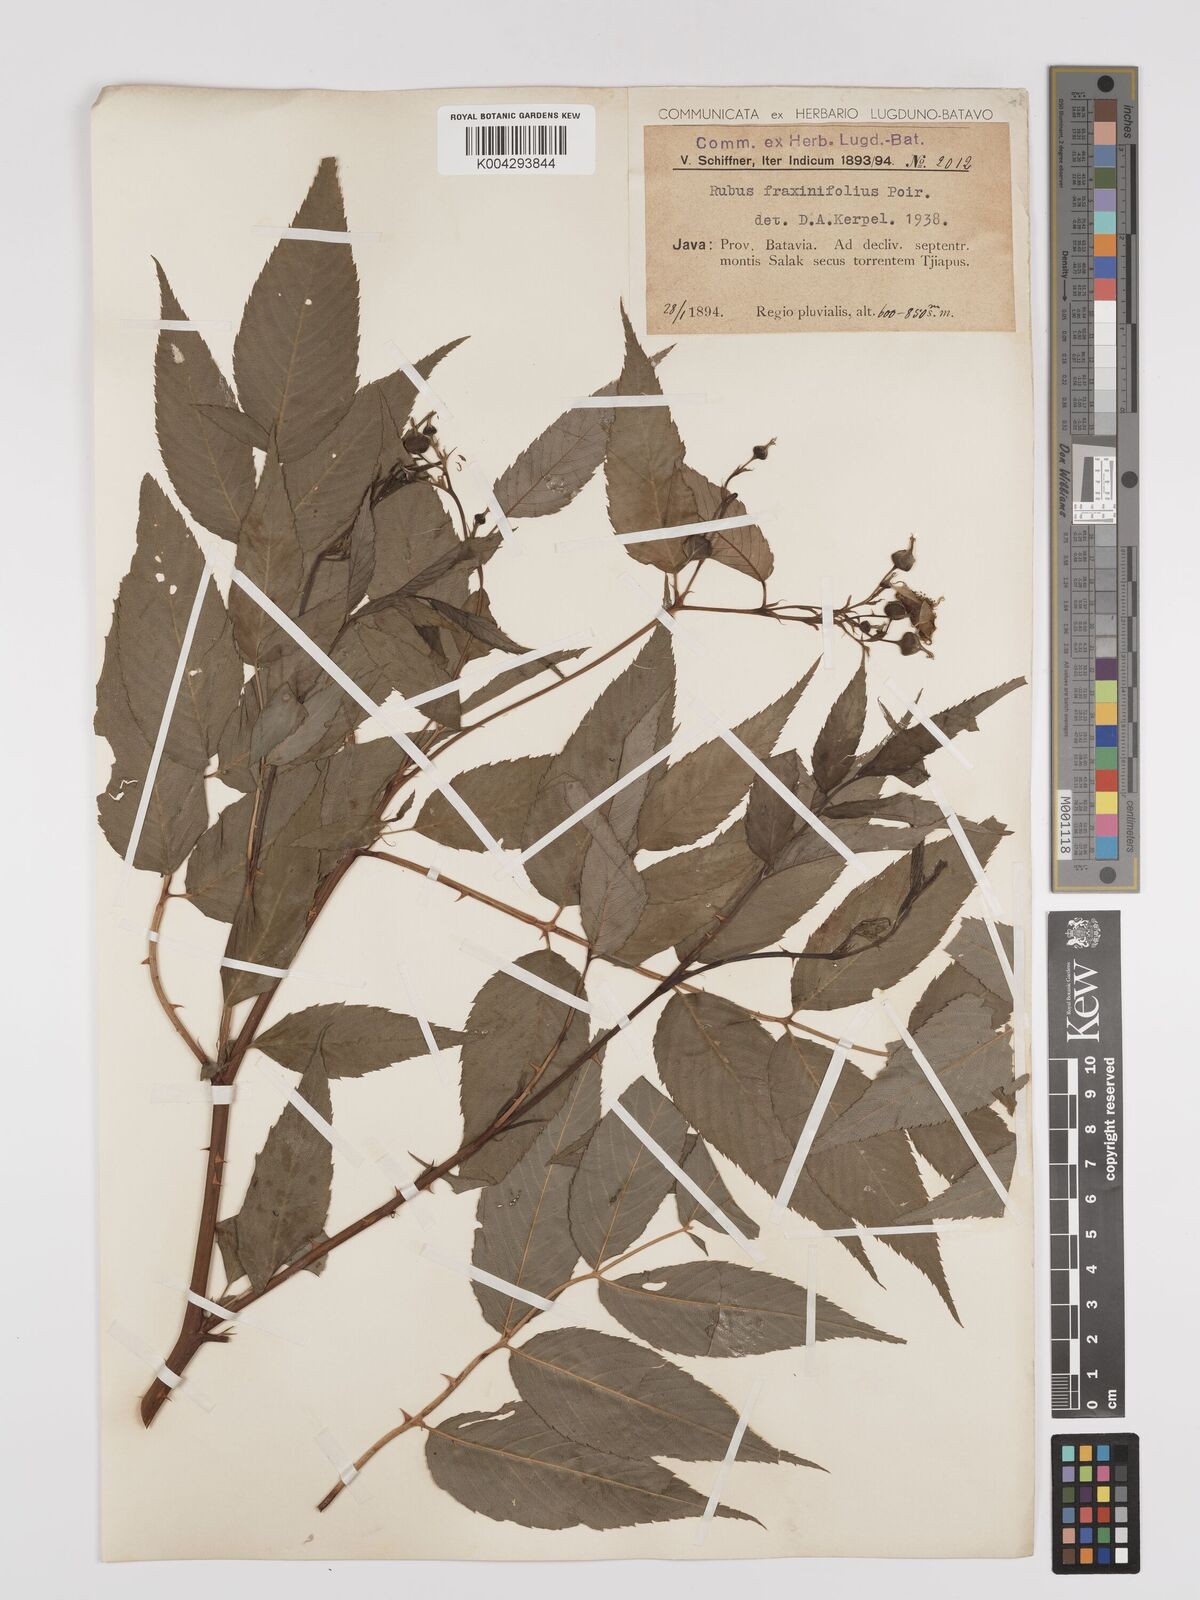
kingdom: Plantae
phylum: Tracheophyta
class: Magnoliopsida
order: Rosales
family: Rosaceae
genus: Rubus
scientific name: Rubus fraxinifolius
